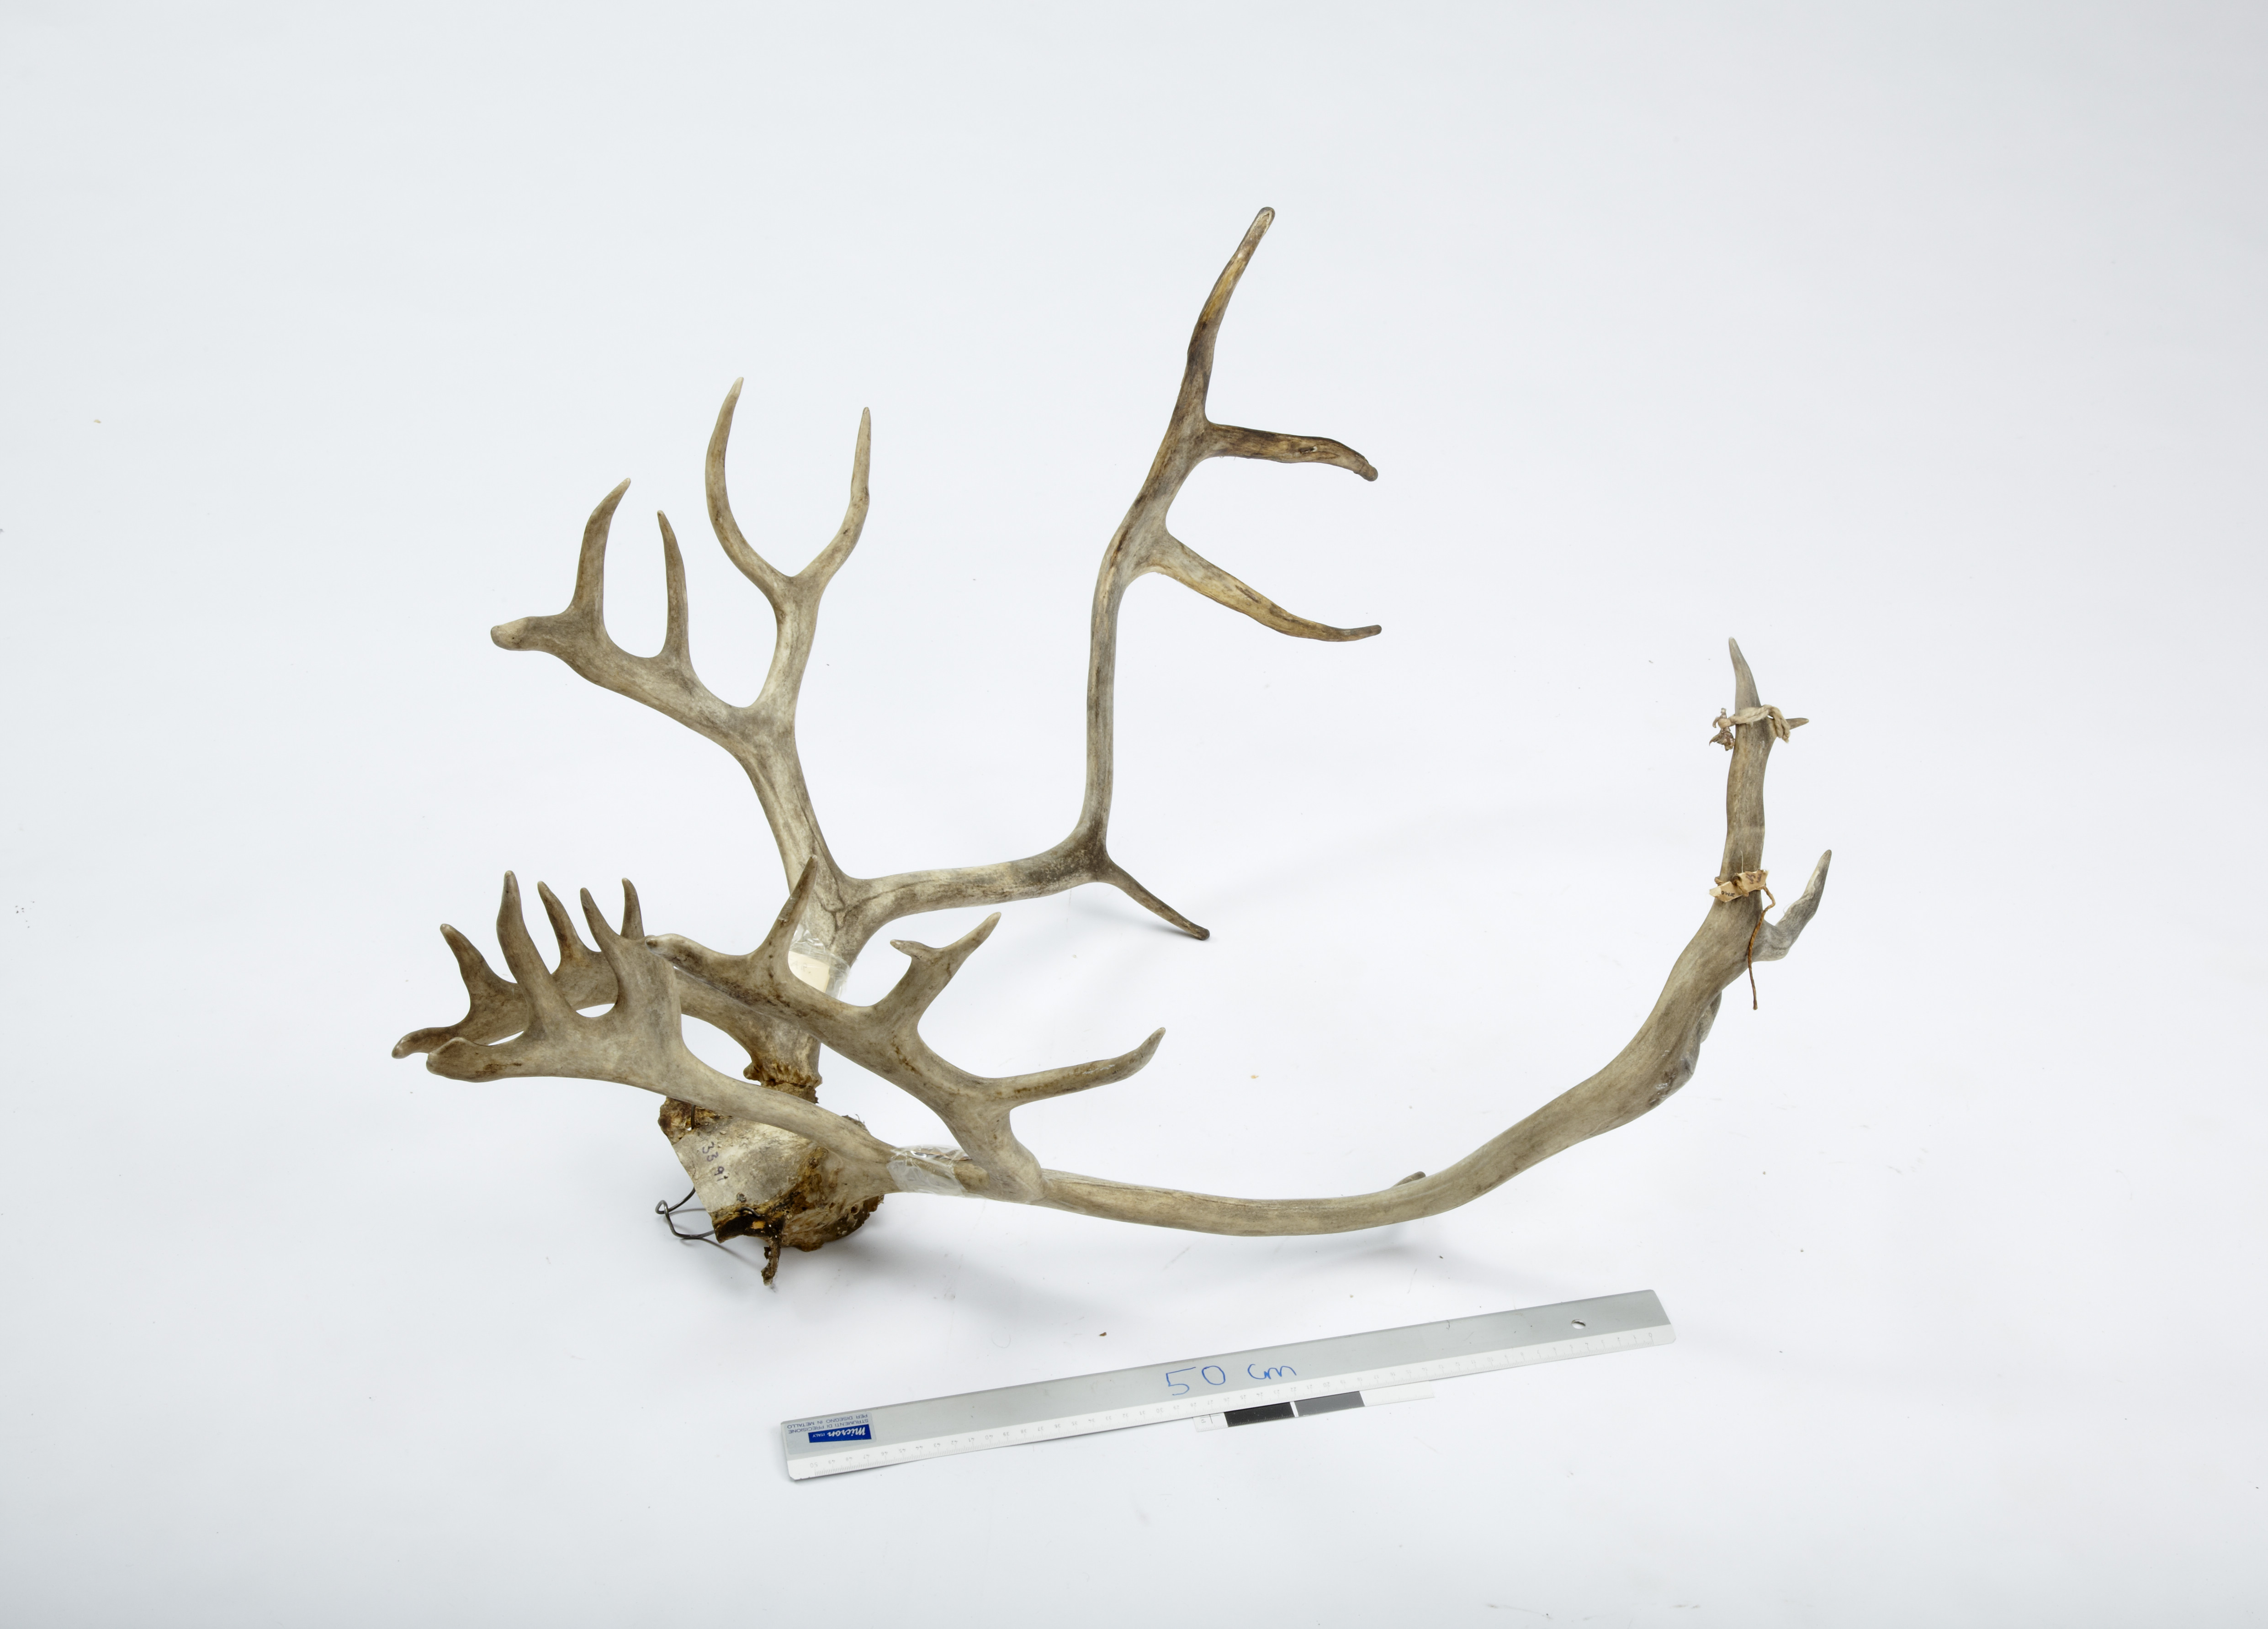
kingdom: Animalia
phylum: Chordata
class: Mammalia
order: Artiodactyla
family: Cervidae
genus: Rangifer
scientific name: Rangifer tarandus
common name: Reindeer
